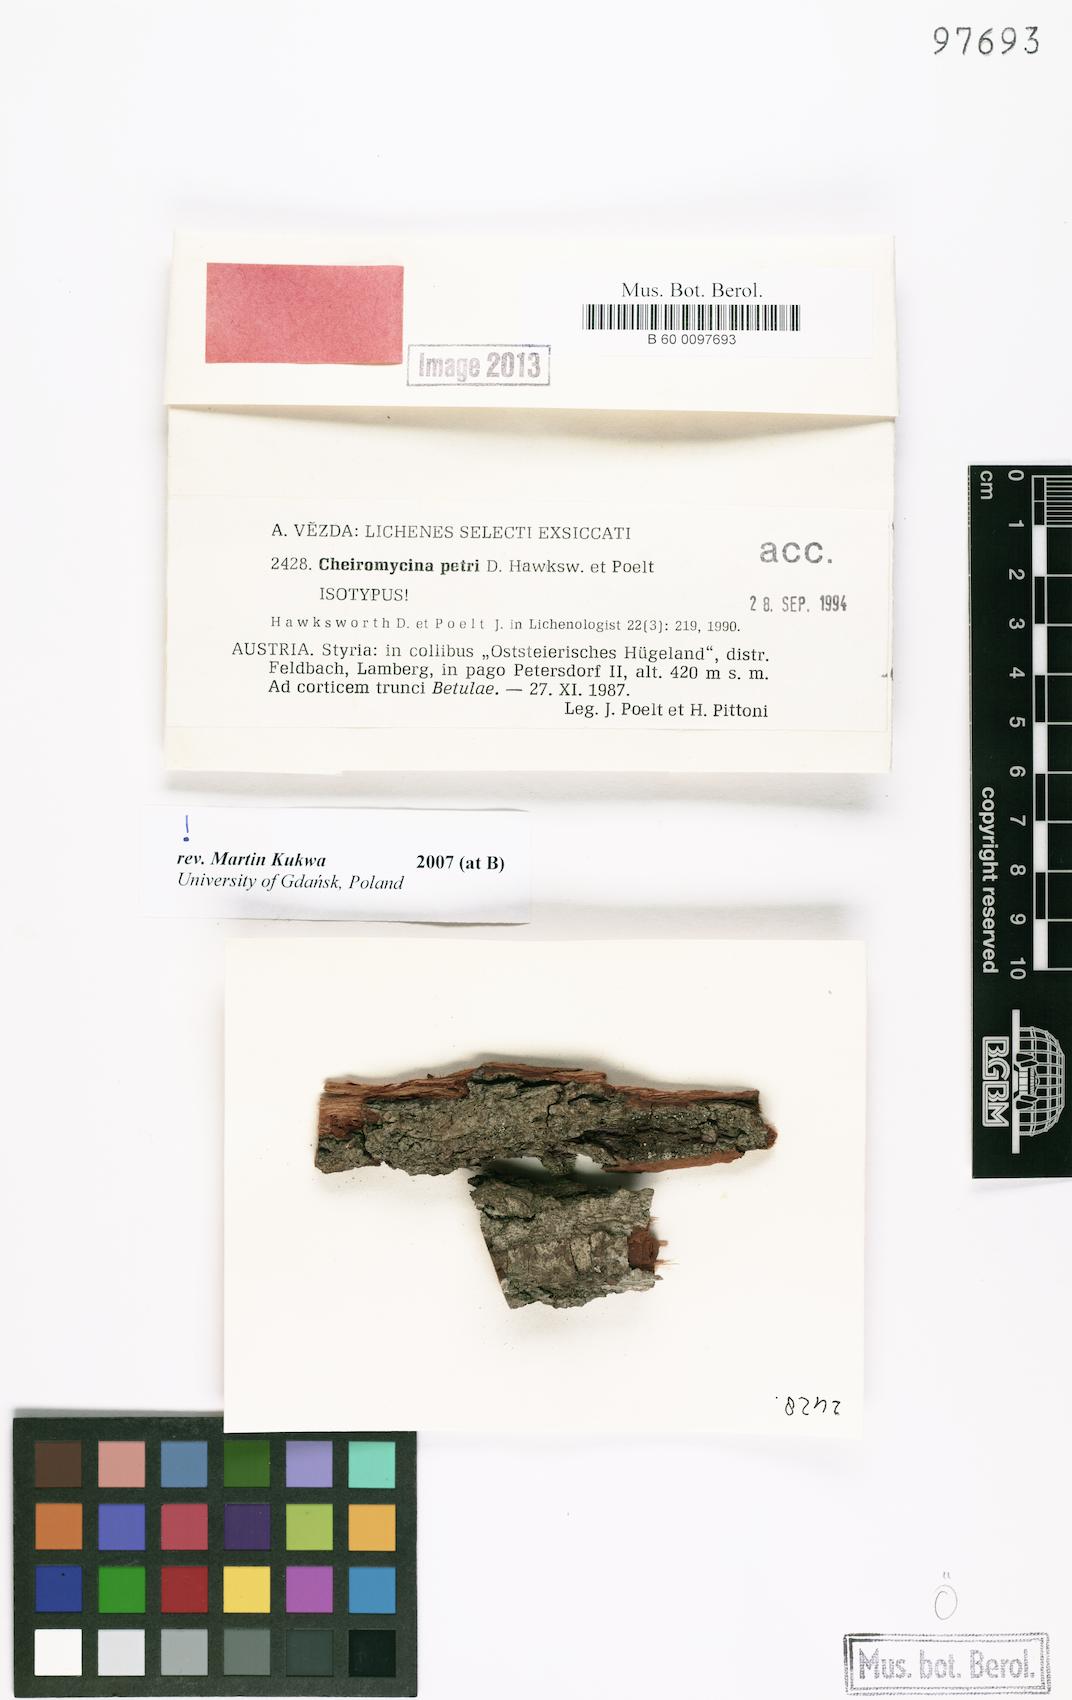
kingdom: Fungi
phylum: Ascomycota
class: Lecanoromycetes
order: Lecanorales
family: Malmideaceae
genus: Cheiromycina
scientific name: Cheiromycina petri
